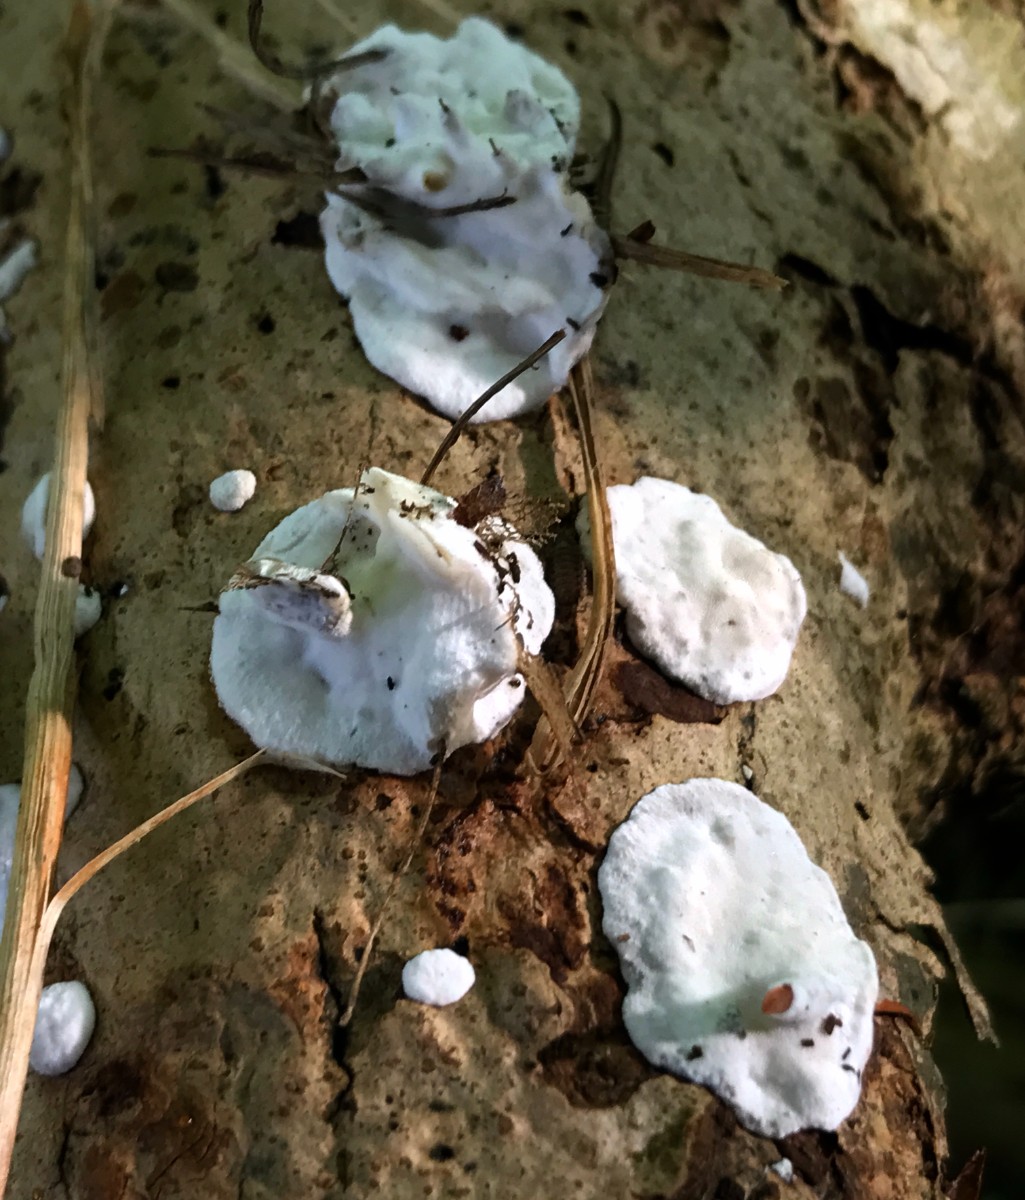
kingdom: Fungi
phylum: Basidiomycota
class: Agaricomycetes
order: Polyporales
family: Incrustoporiaceae
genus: Skeletocutis
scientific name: Skeletocutis nemoralis
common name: stor krystalporesvamp
